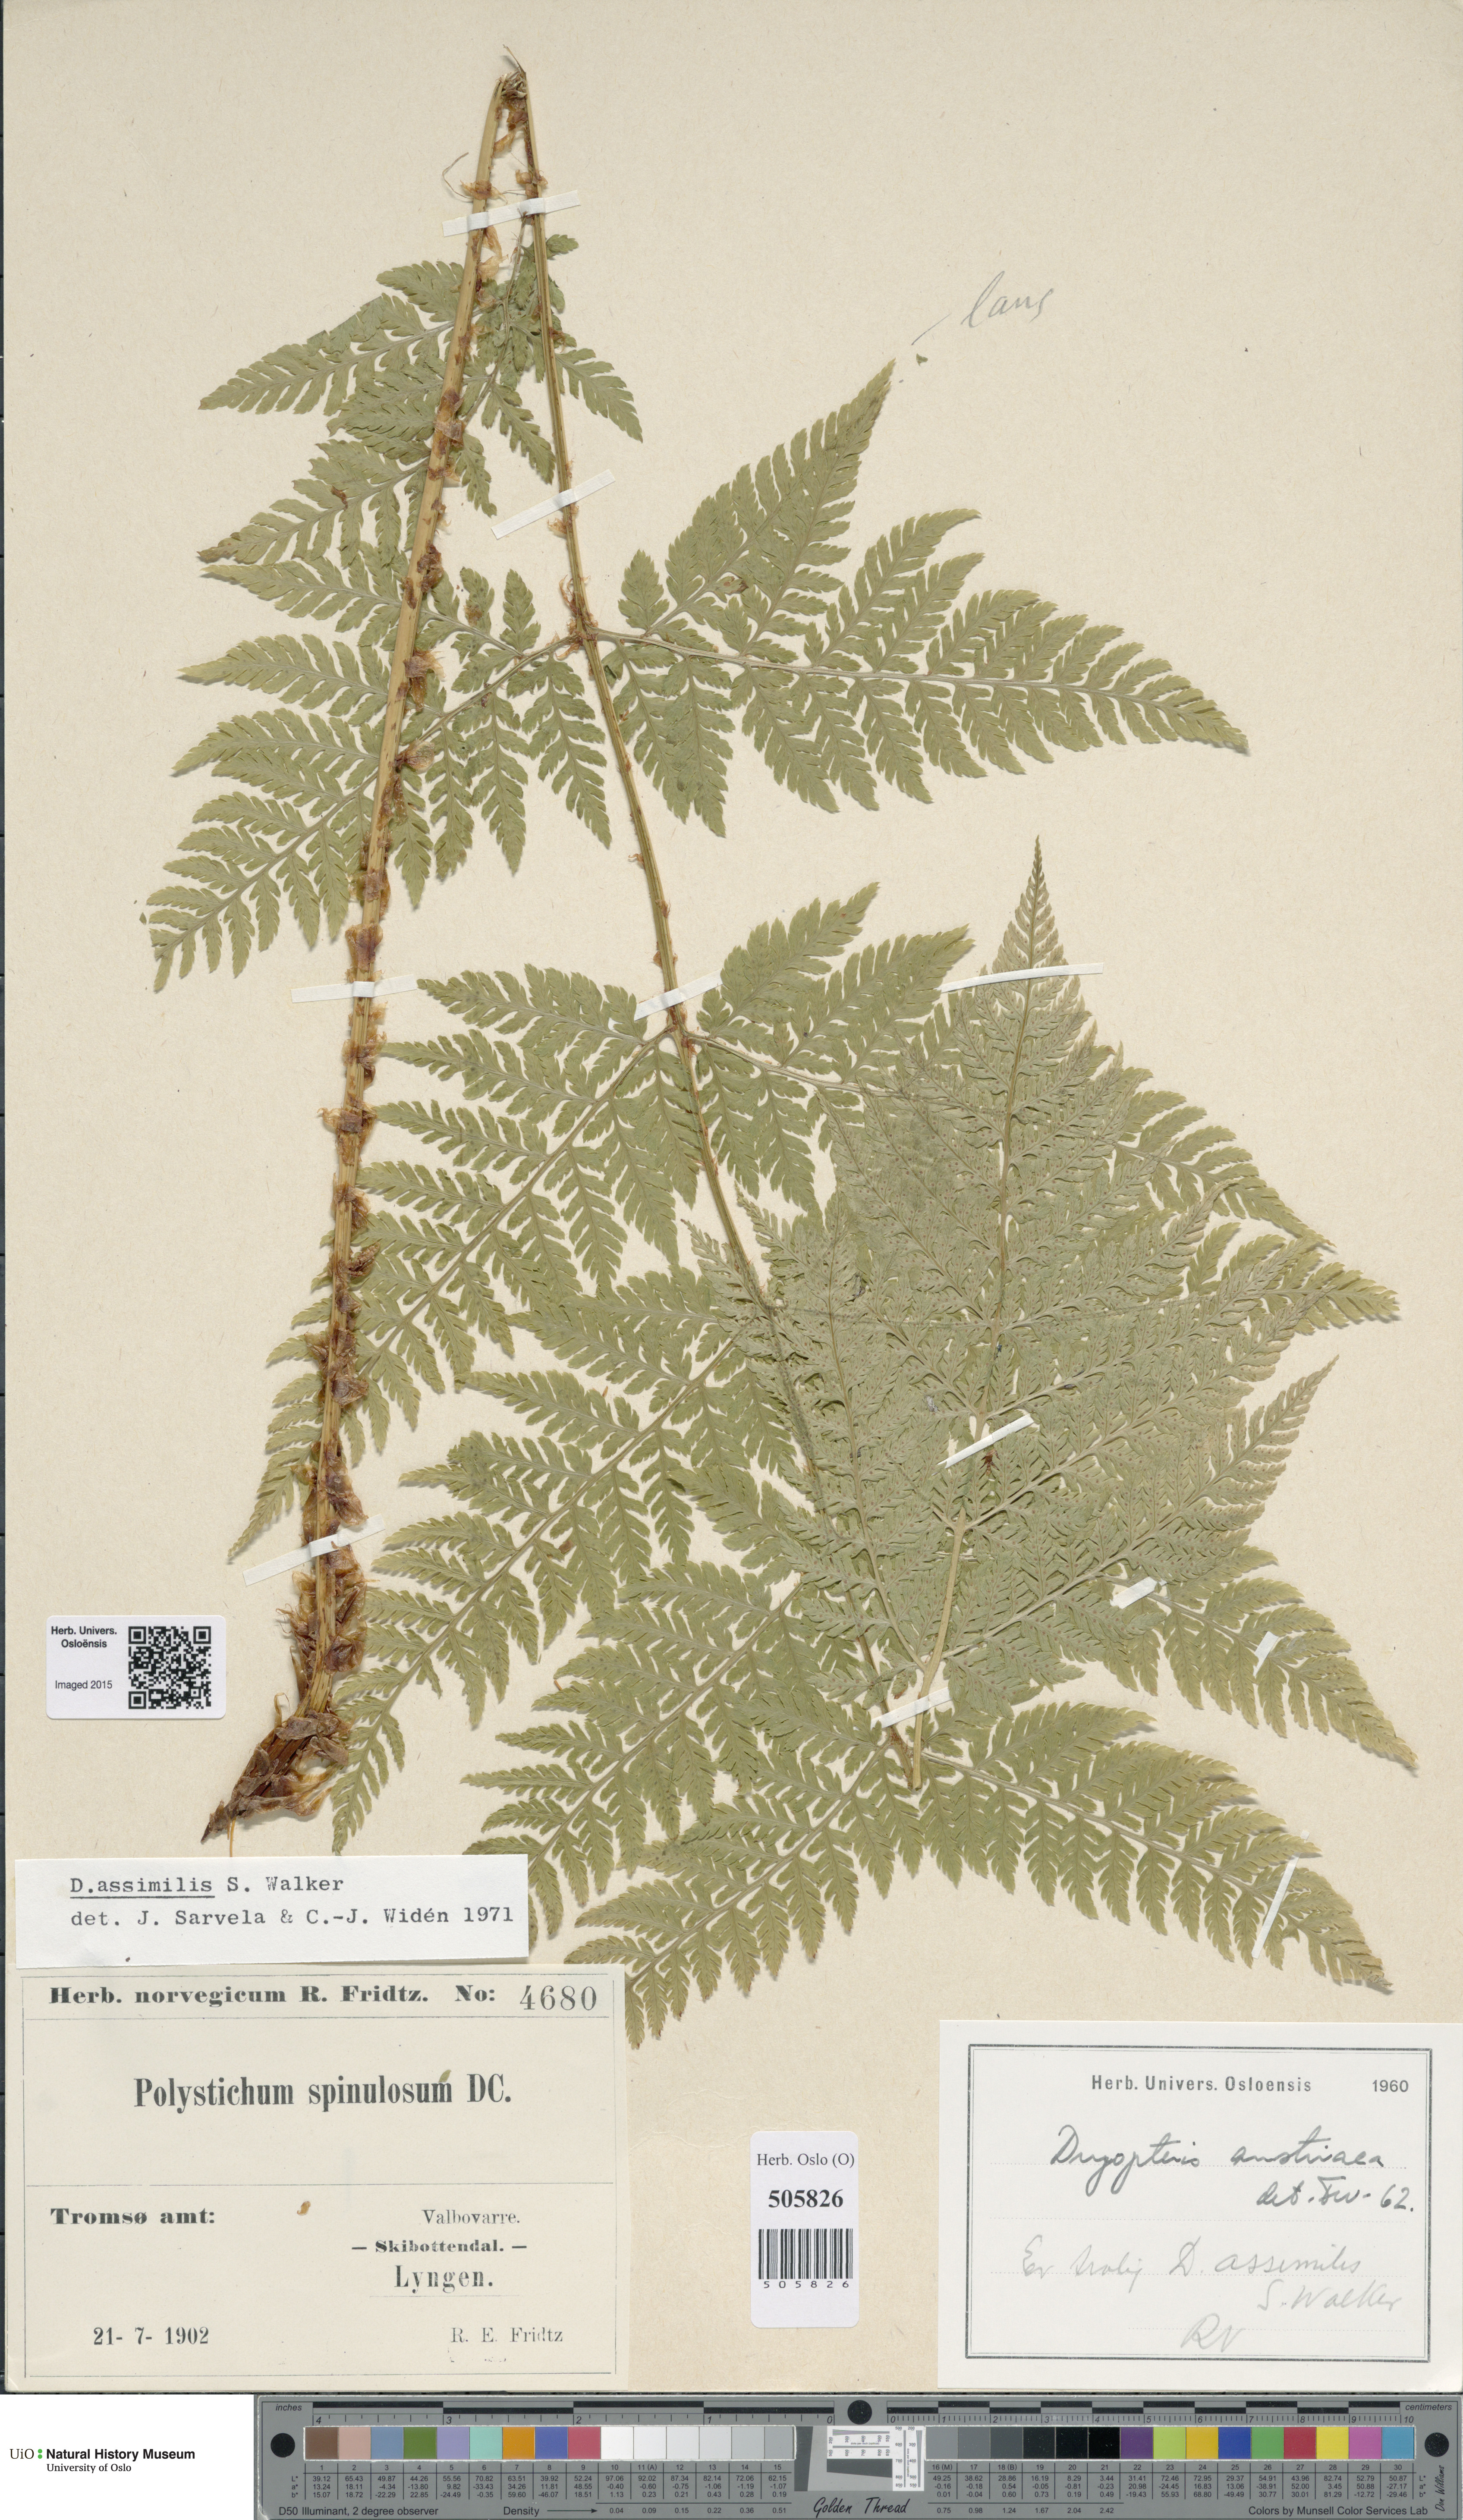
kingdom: Plantae
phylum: Tracheophyta
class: Polypodiopsida
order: Polypodiales
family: Dryopteridaceae
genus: Dryopteris
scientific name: Dryopteris expansa
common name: Northern buckler fern
